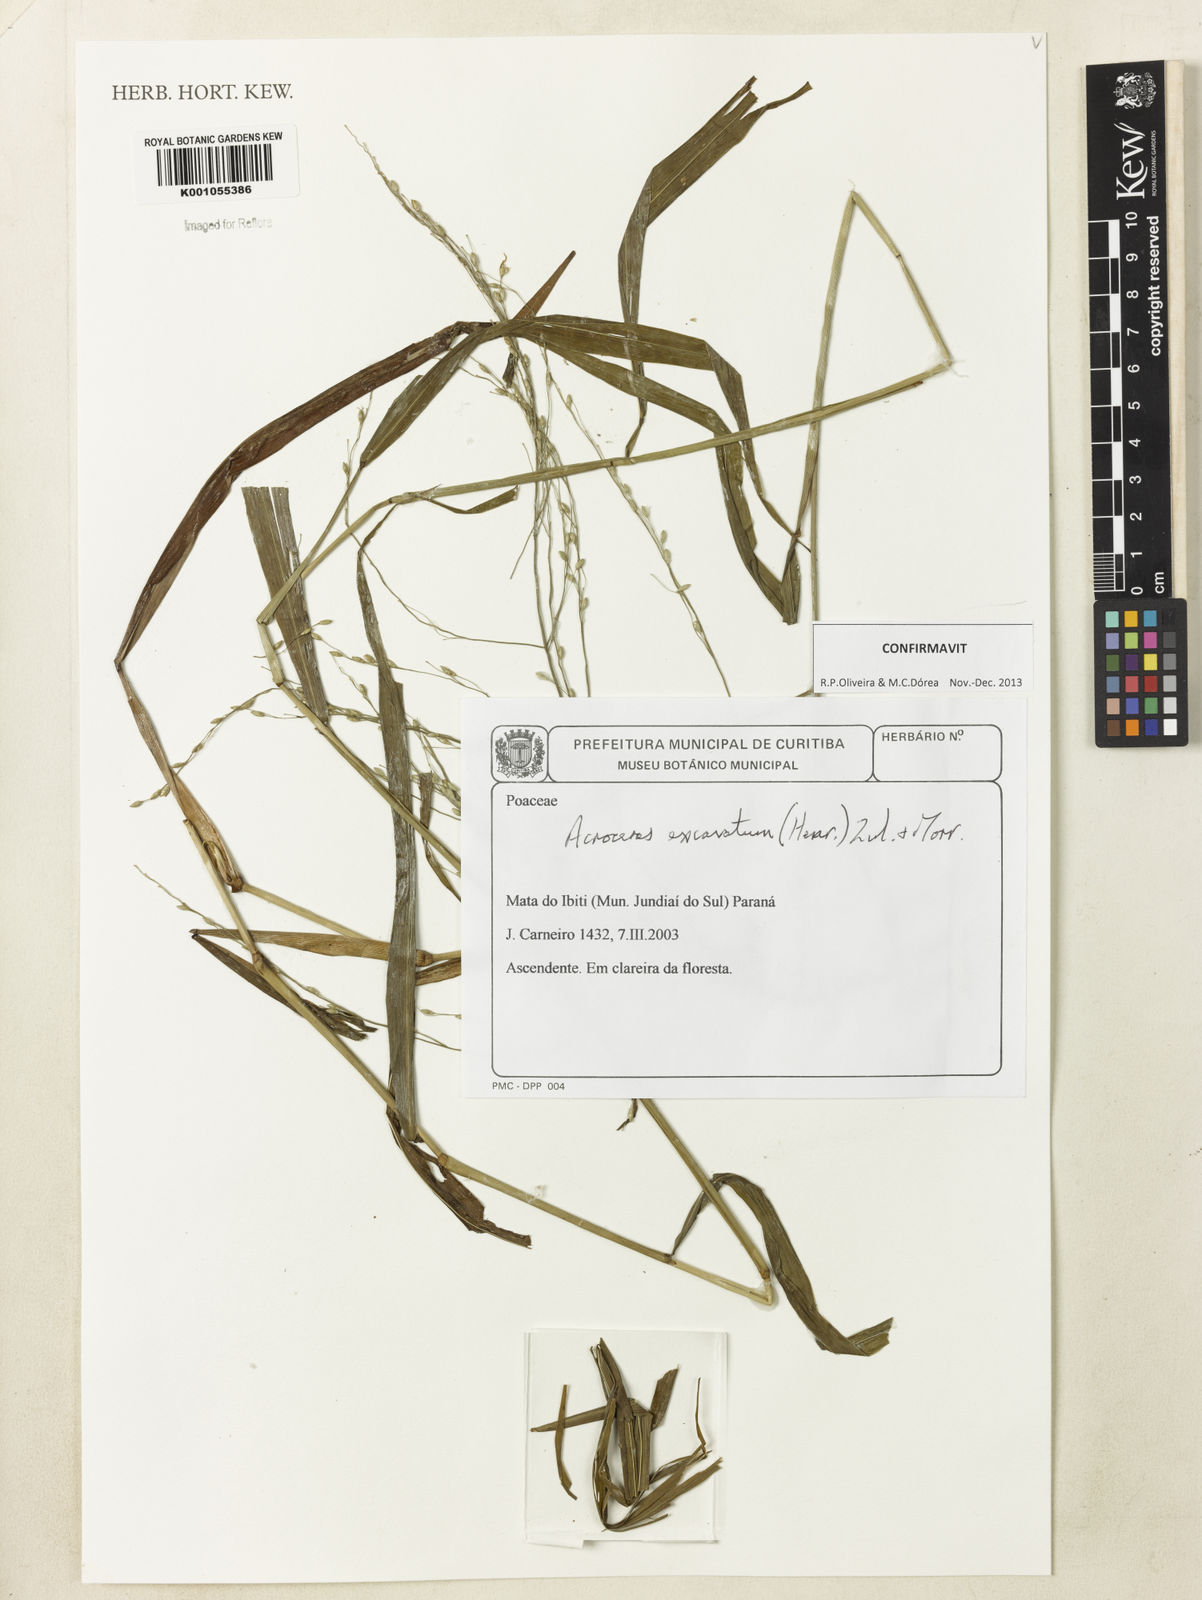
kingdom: Plantae
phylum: Tracheophyta
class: Liliopsida
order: Poales
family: Poaceae
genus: Acroceras
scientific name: Acroceras excavatum
